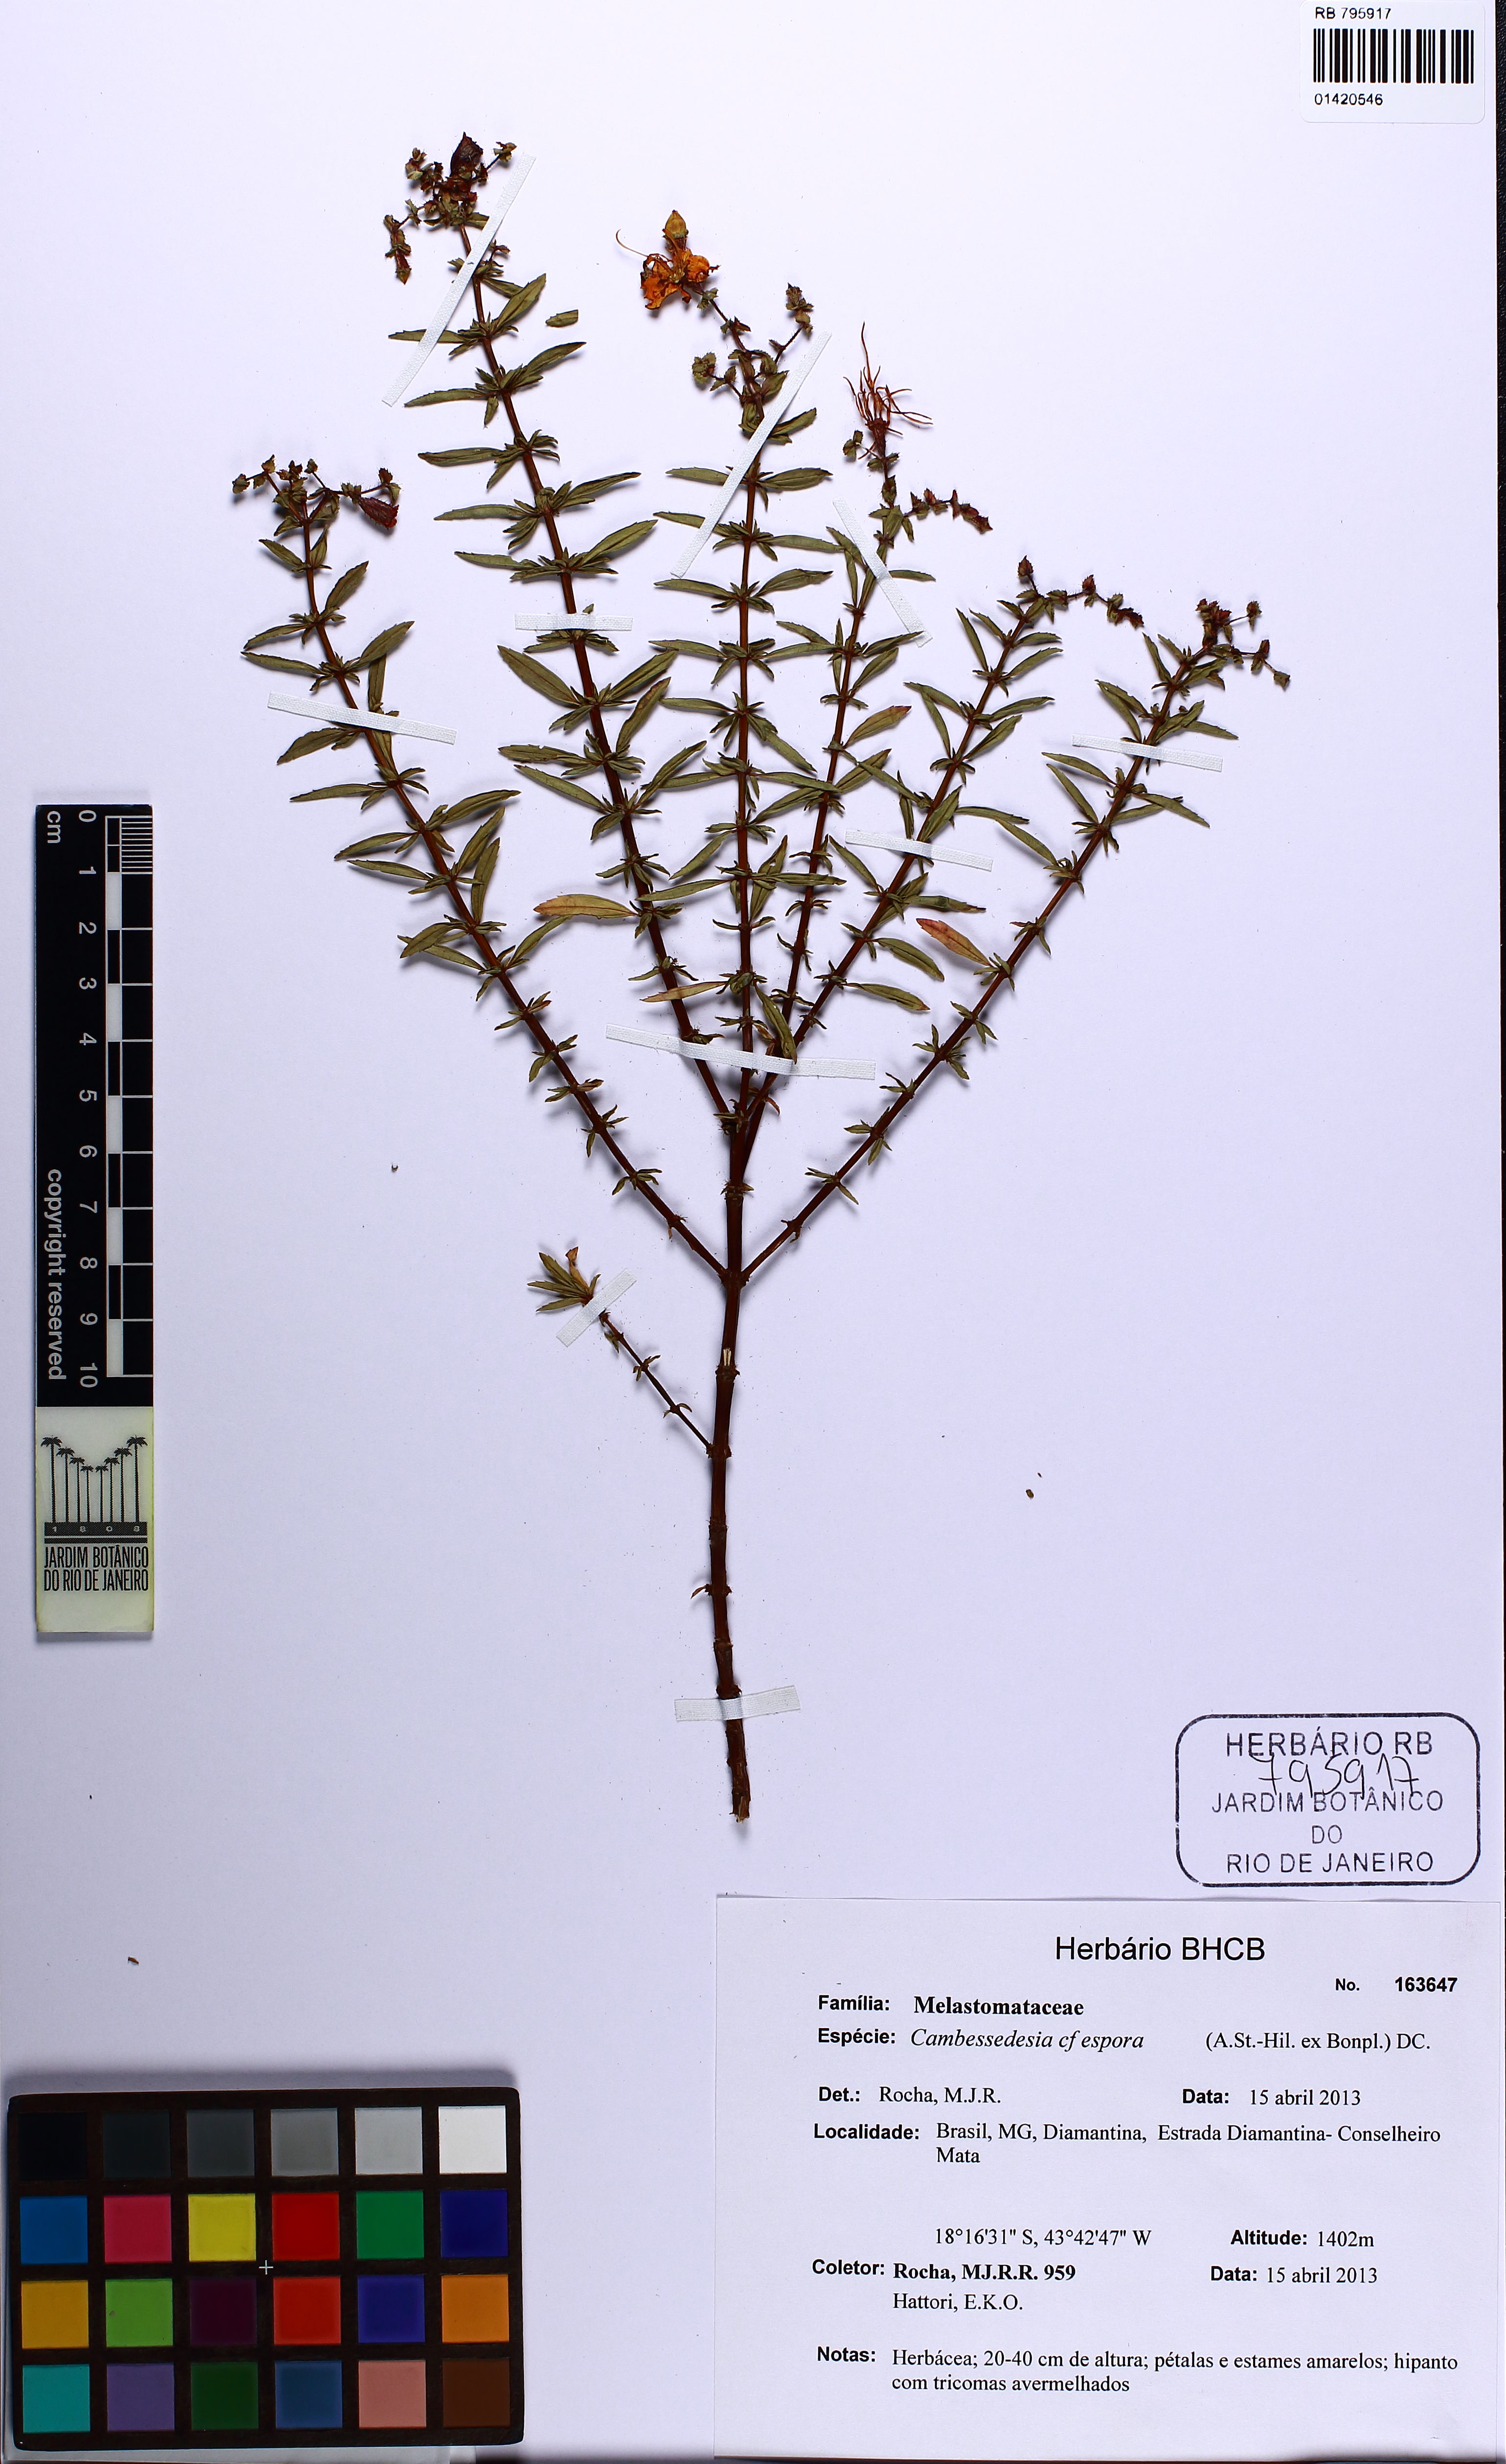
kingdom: Plantae
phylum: Tracheophyta
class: Magnoliopsida
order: Myrtales
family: Melastomataceae
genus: Cambessedesia
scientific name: Cambessedesia espora
